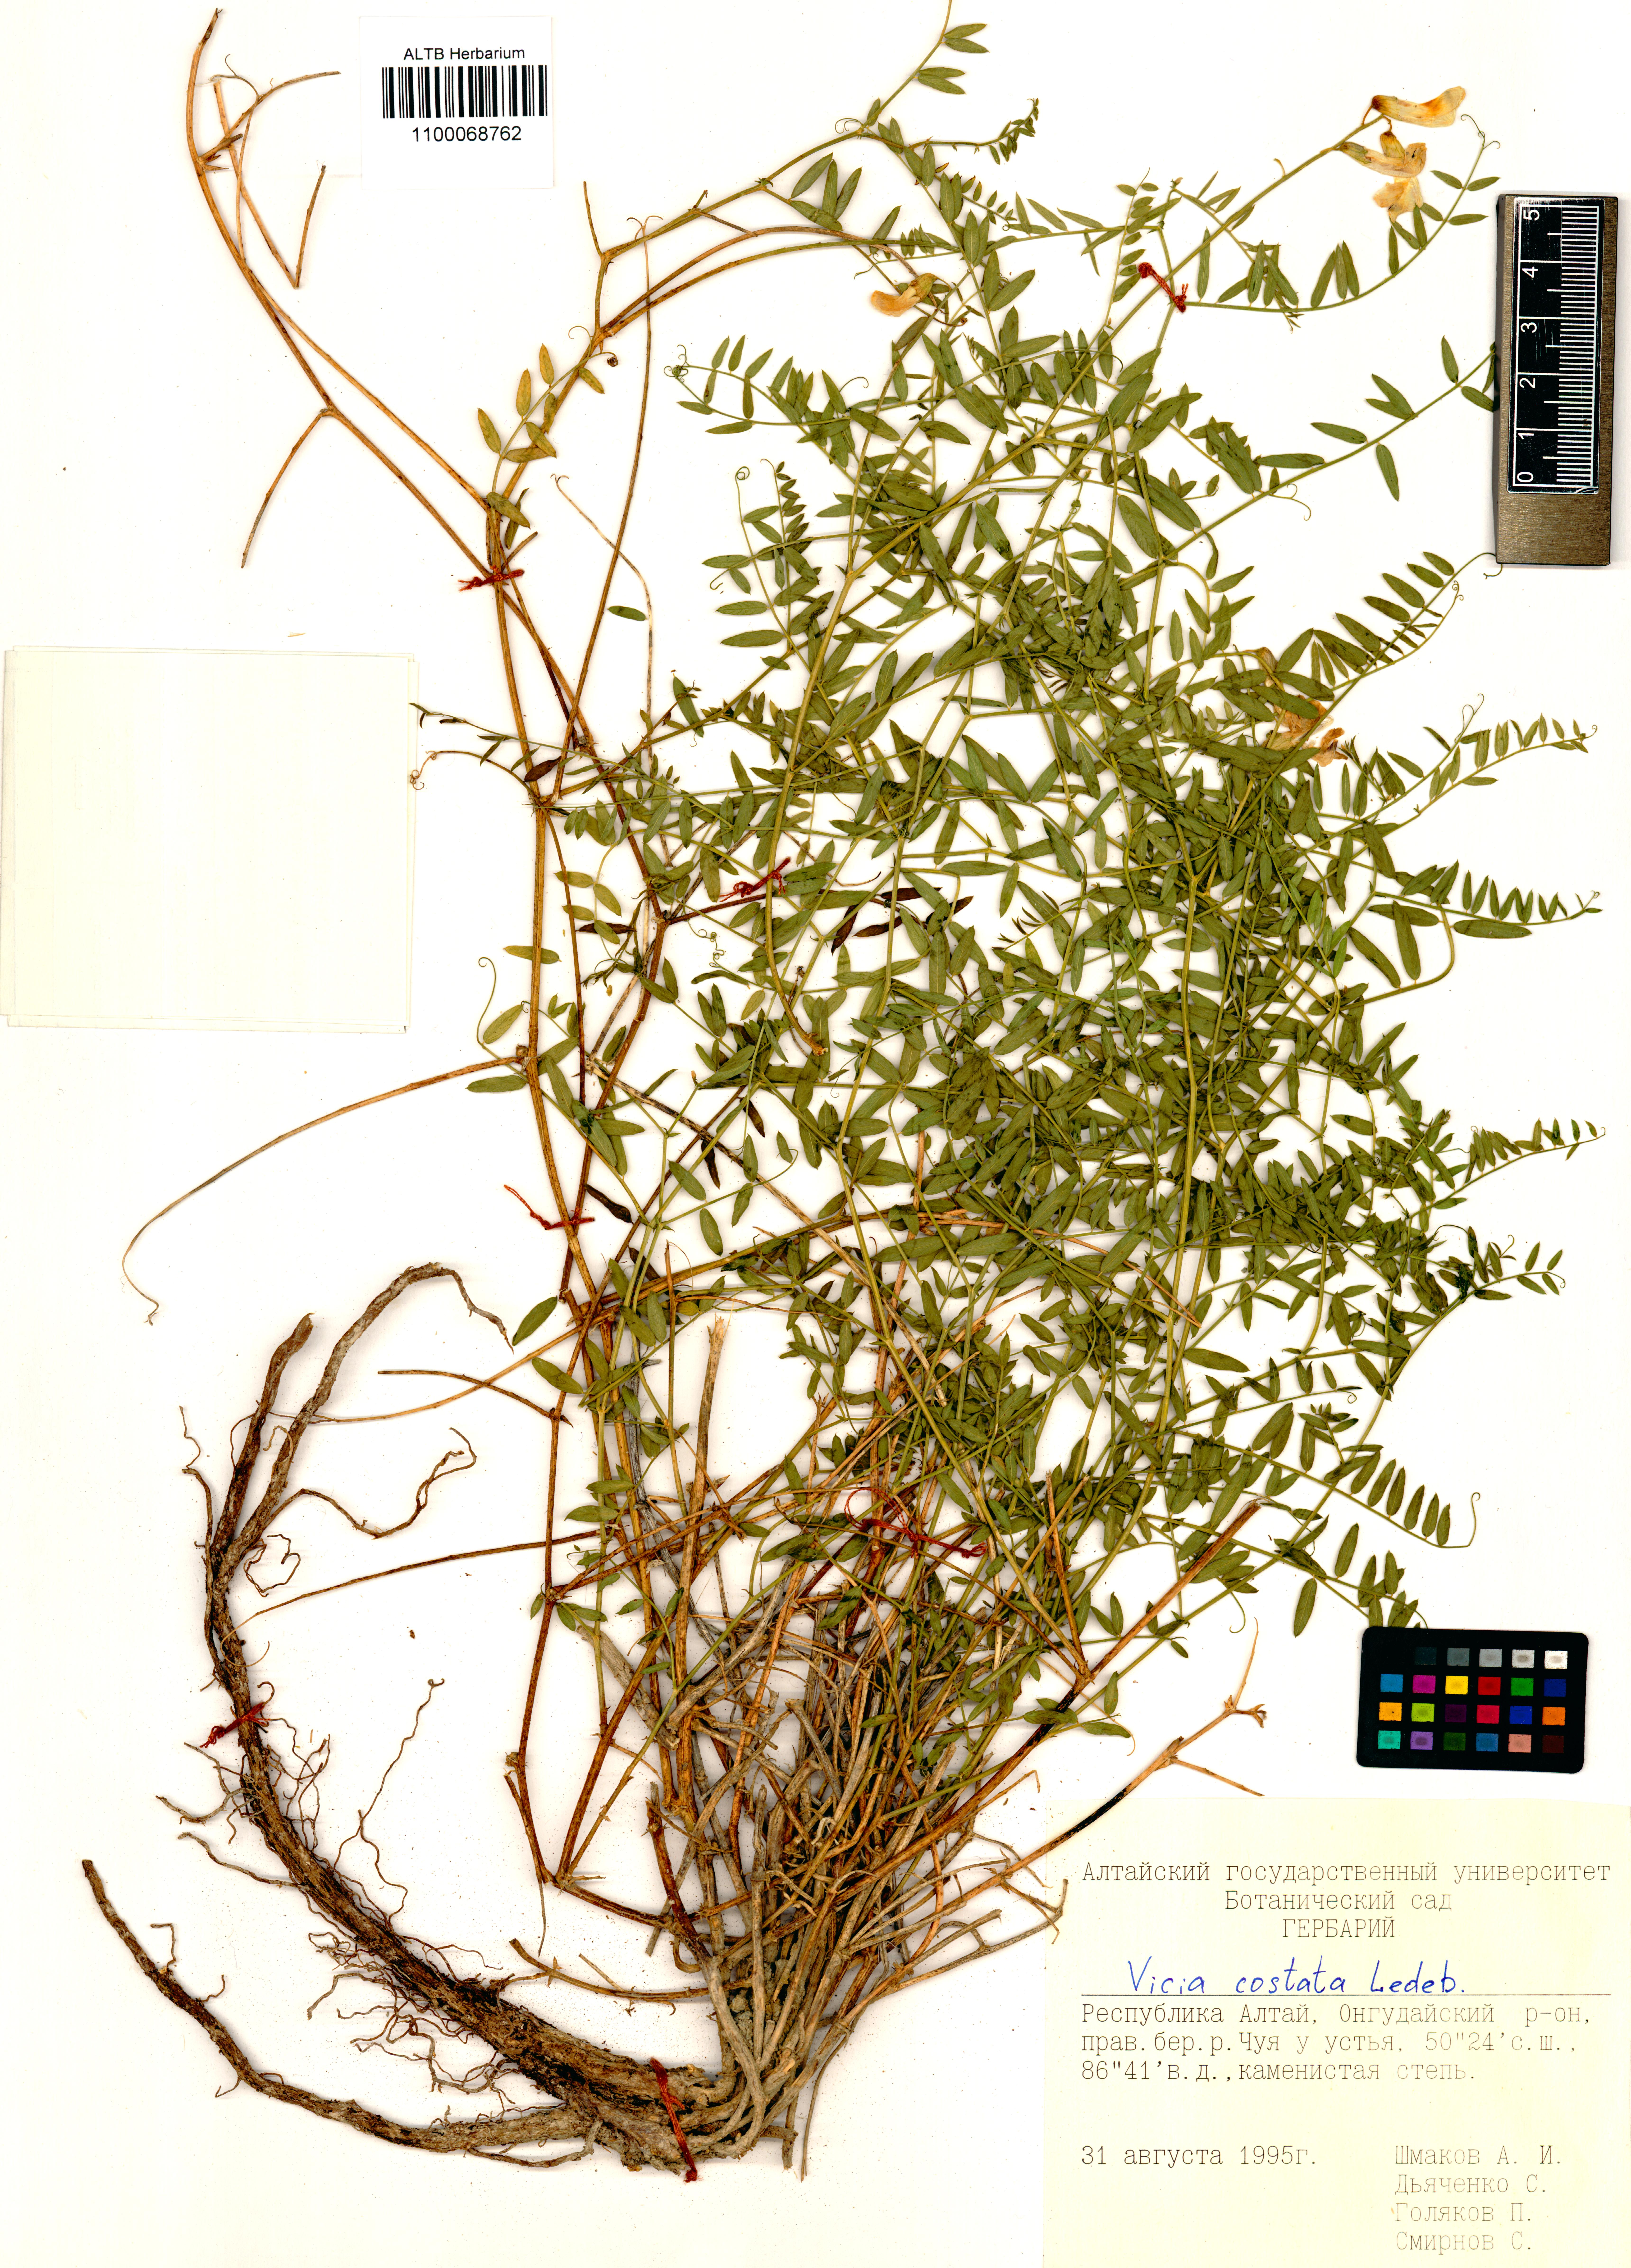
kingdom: Plantae
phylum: Tracheophyta
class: Magnoliopsida
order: Fabales
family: Fabaceae
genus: Vicia
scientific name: Vicia costata
